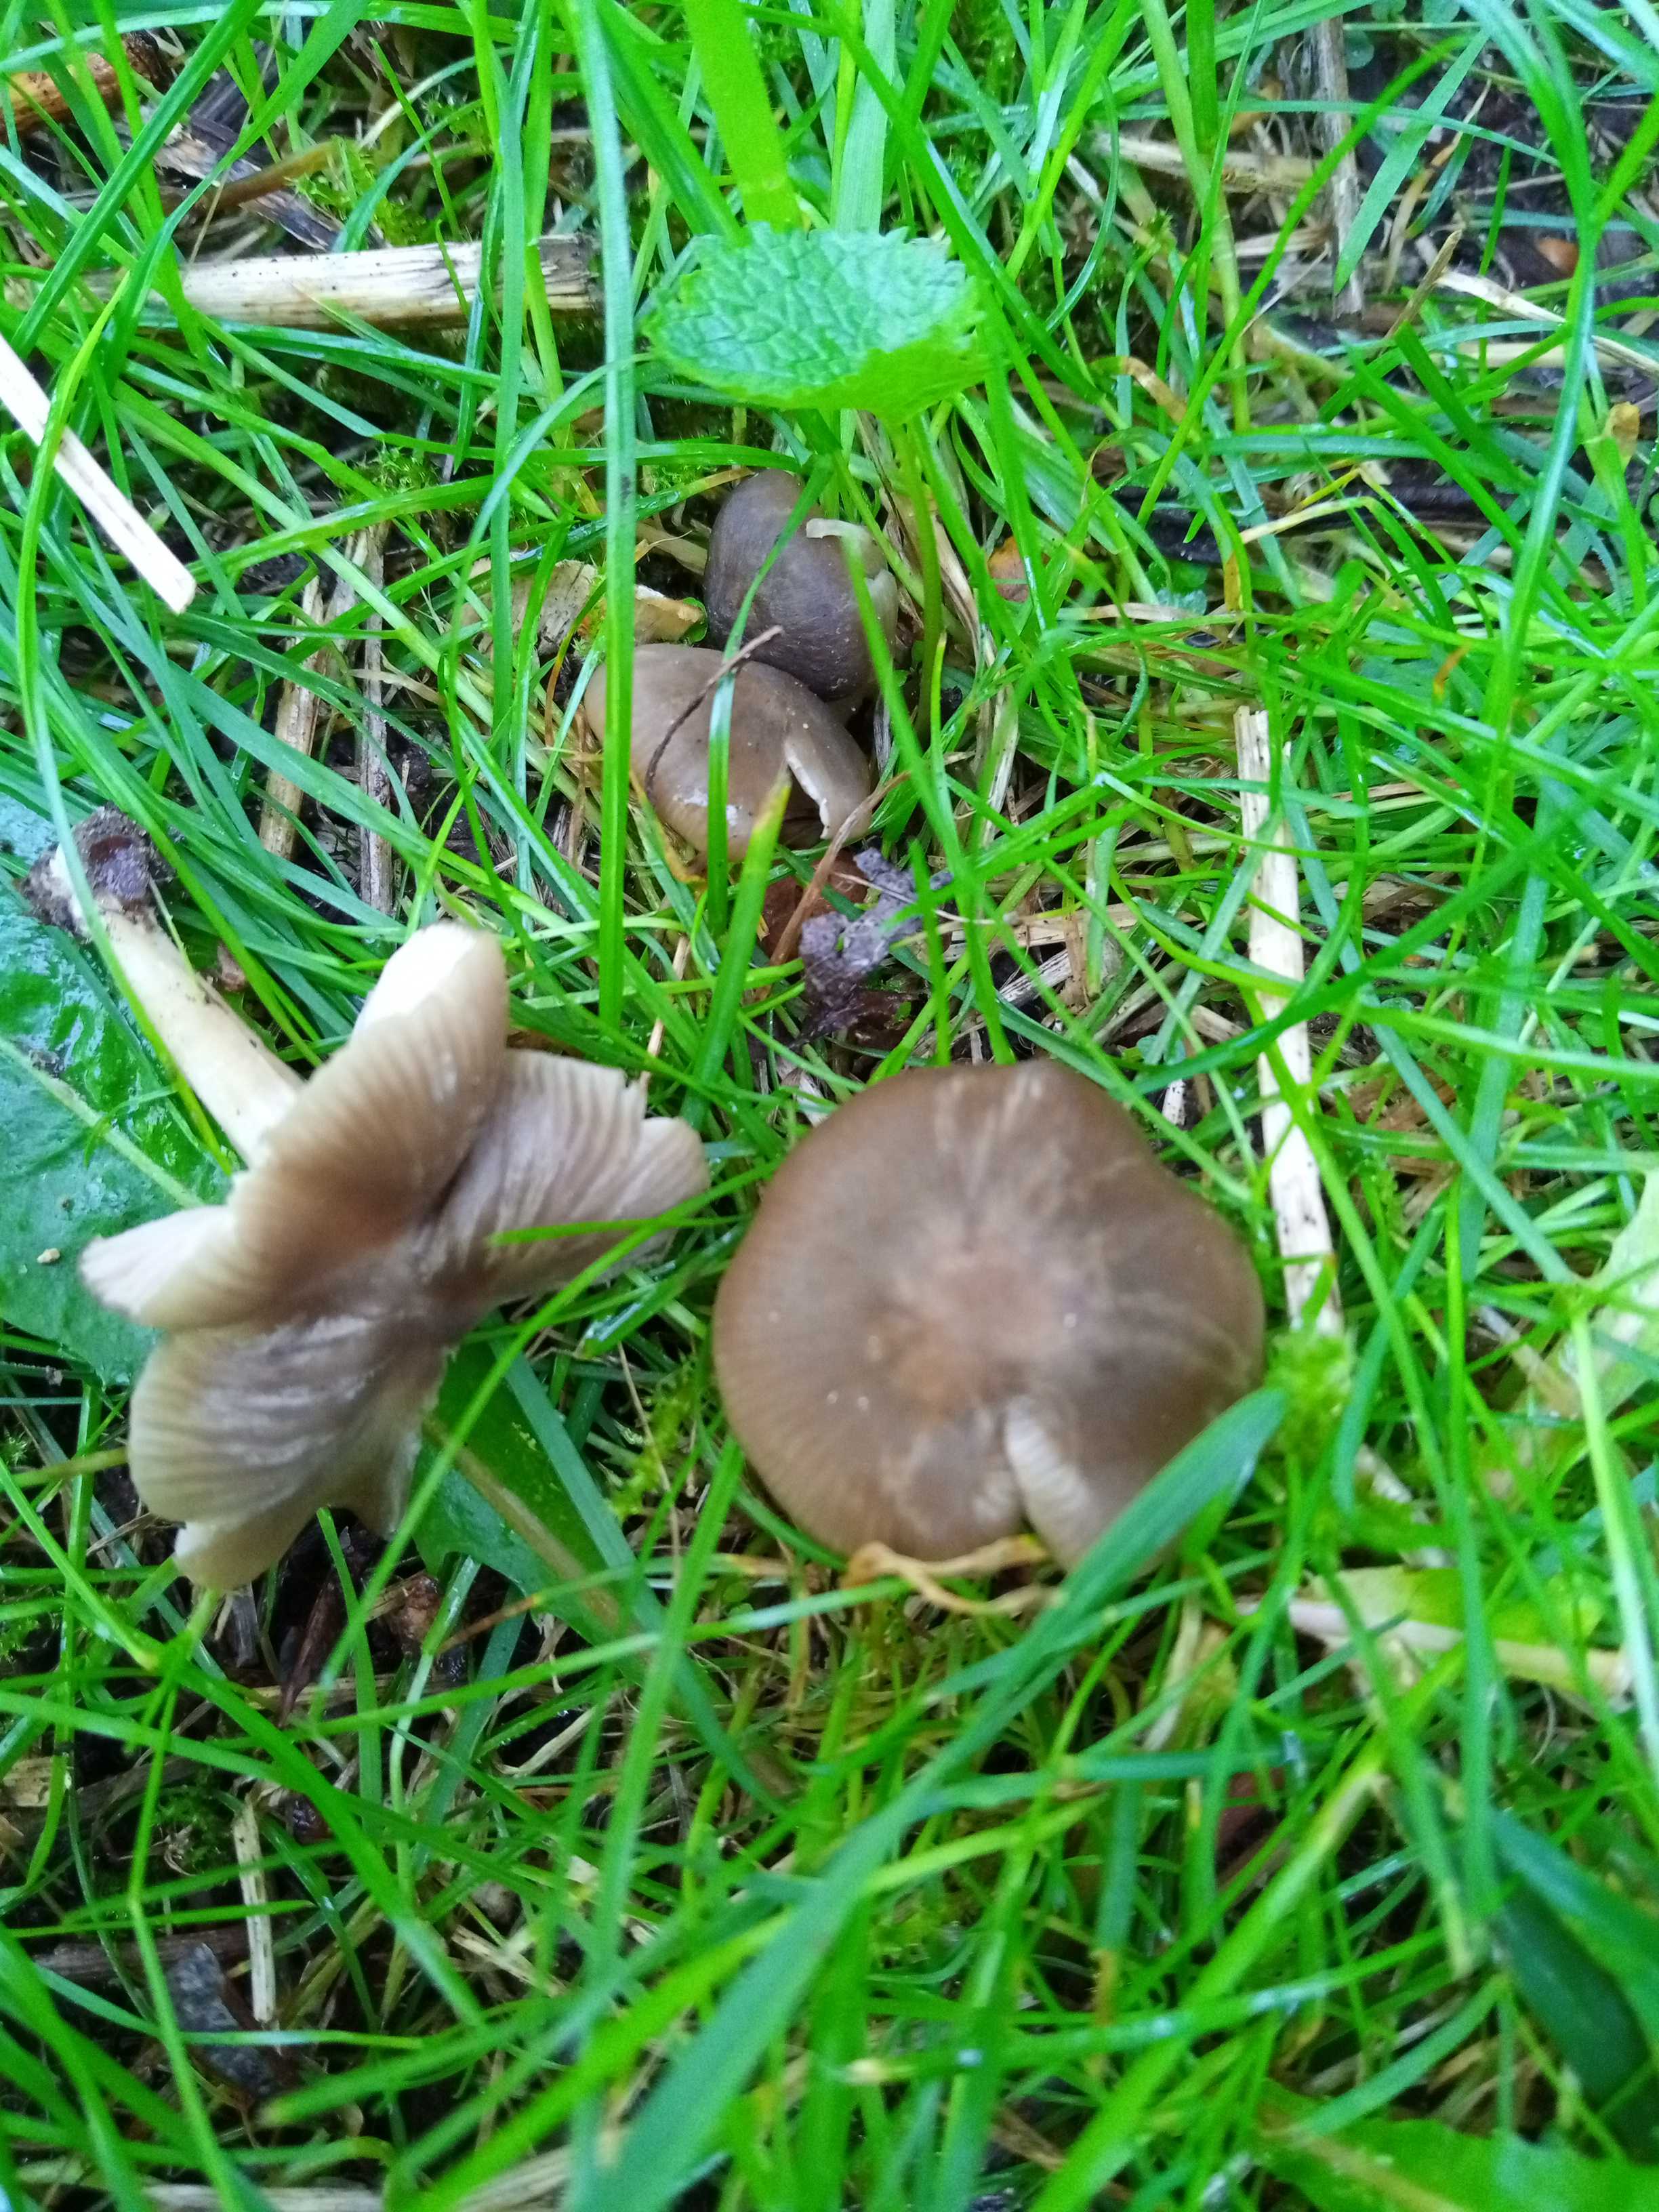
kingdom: Fungi
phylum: Basidiomycota
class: Agaricomycetes
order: Agaricales
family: Entolomataceae
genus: Entoloma
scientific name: Entoloma
